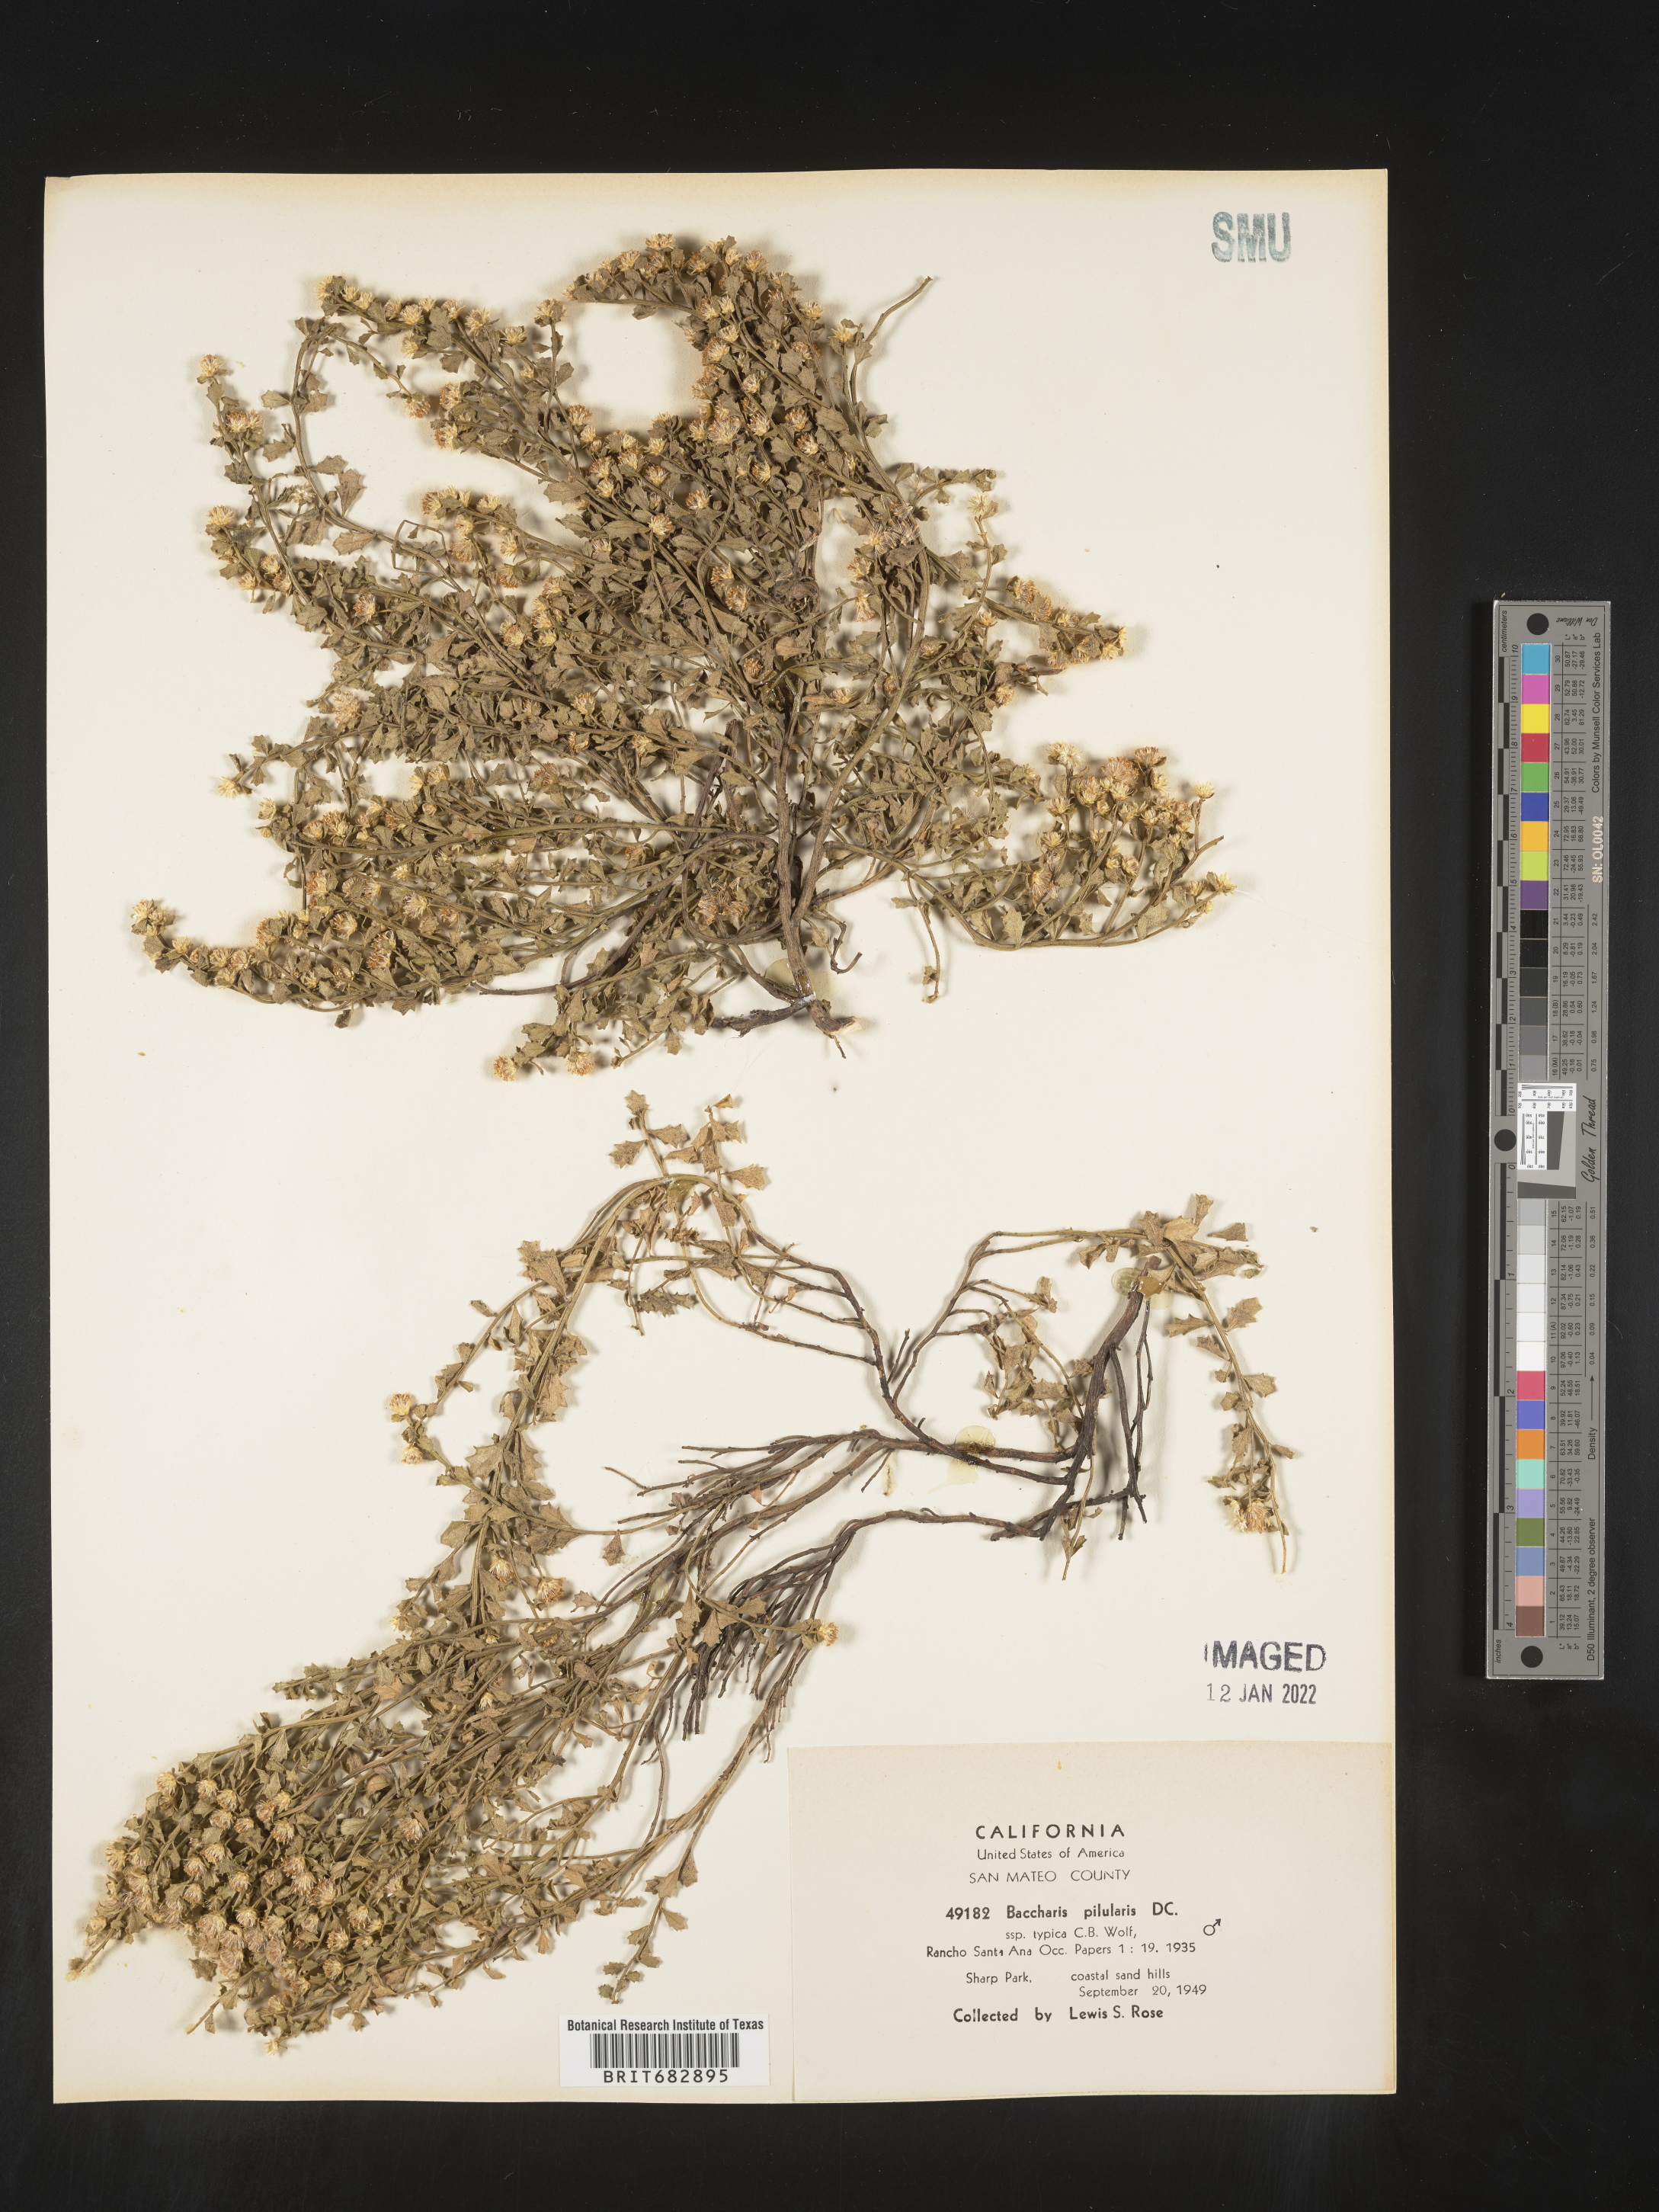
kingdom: Plantae
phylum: Tracheophyta
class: Magnoliopsida
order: Asterales
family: Asteraceae
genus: Baccharis
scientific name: Baccharis pilularis
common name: Coyotebrush
